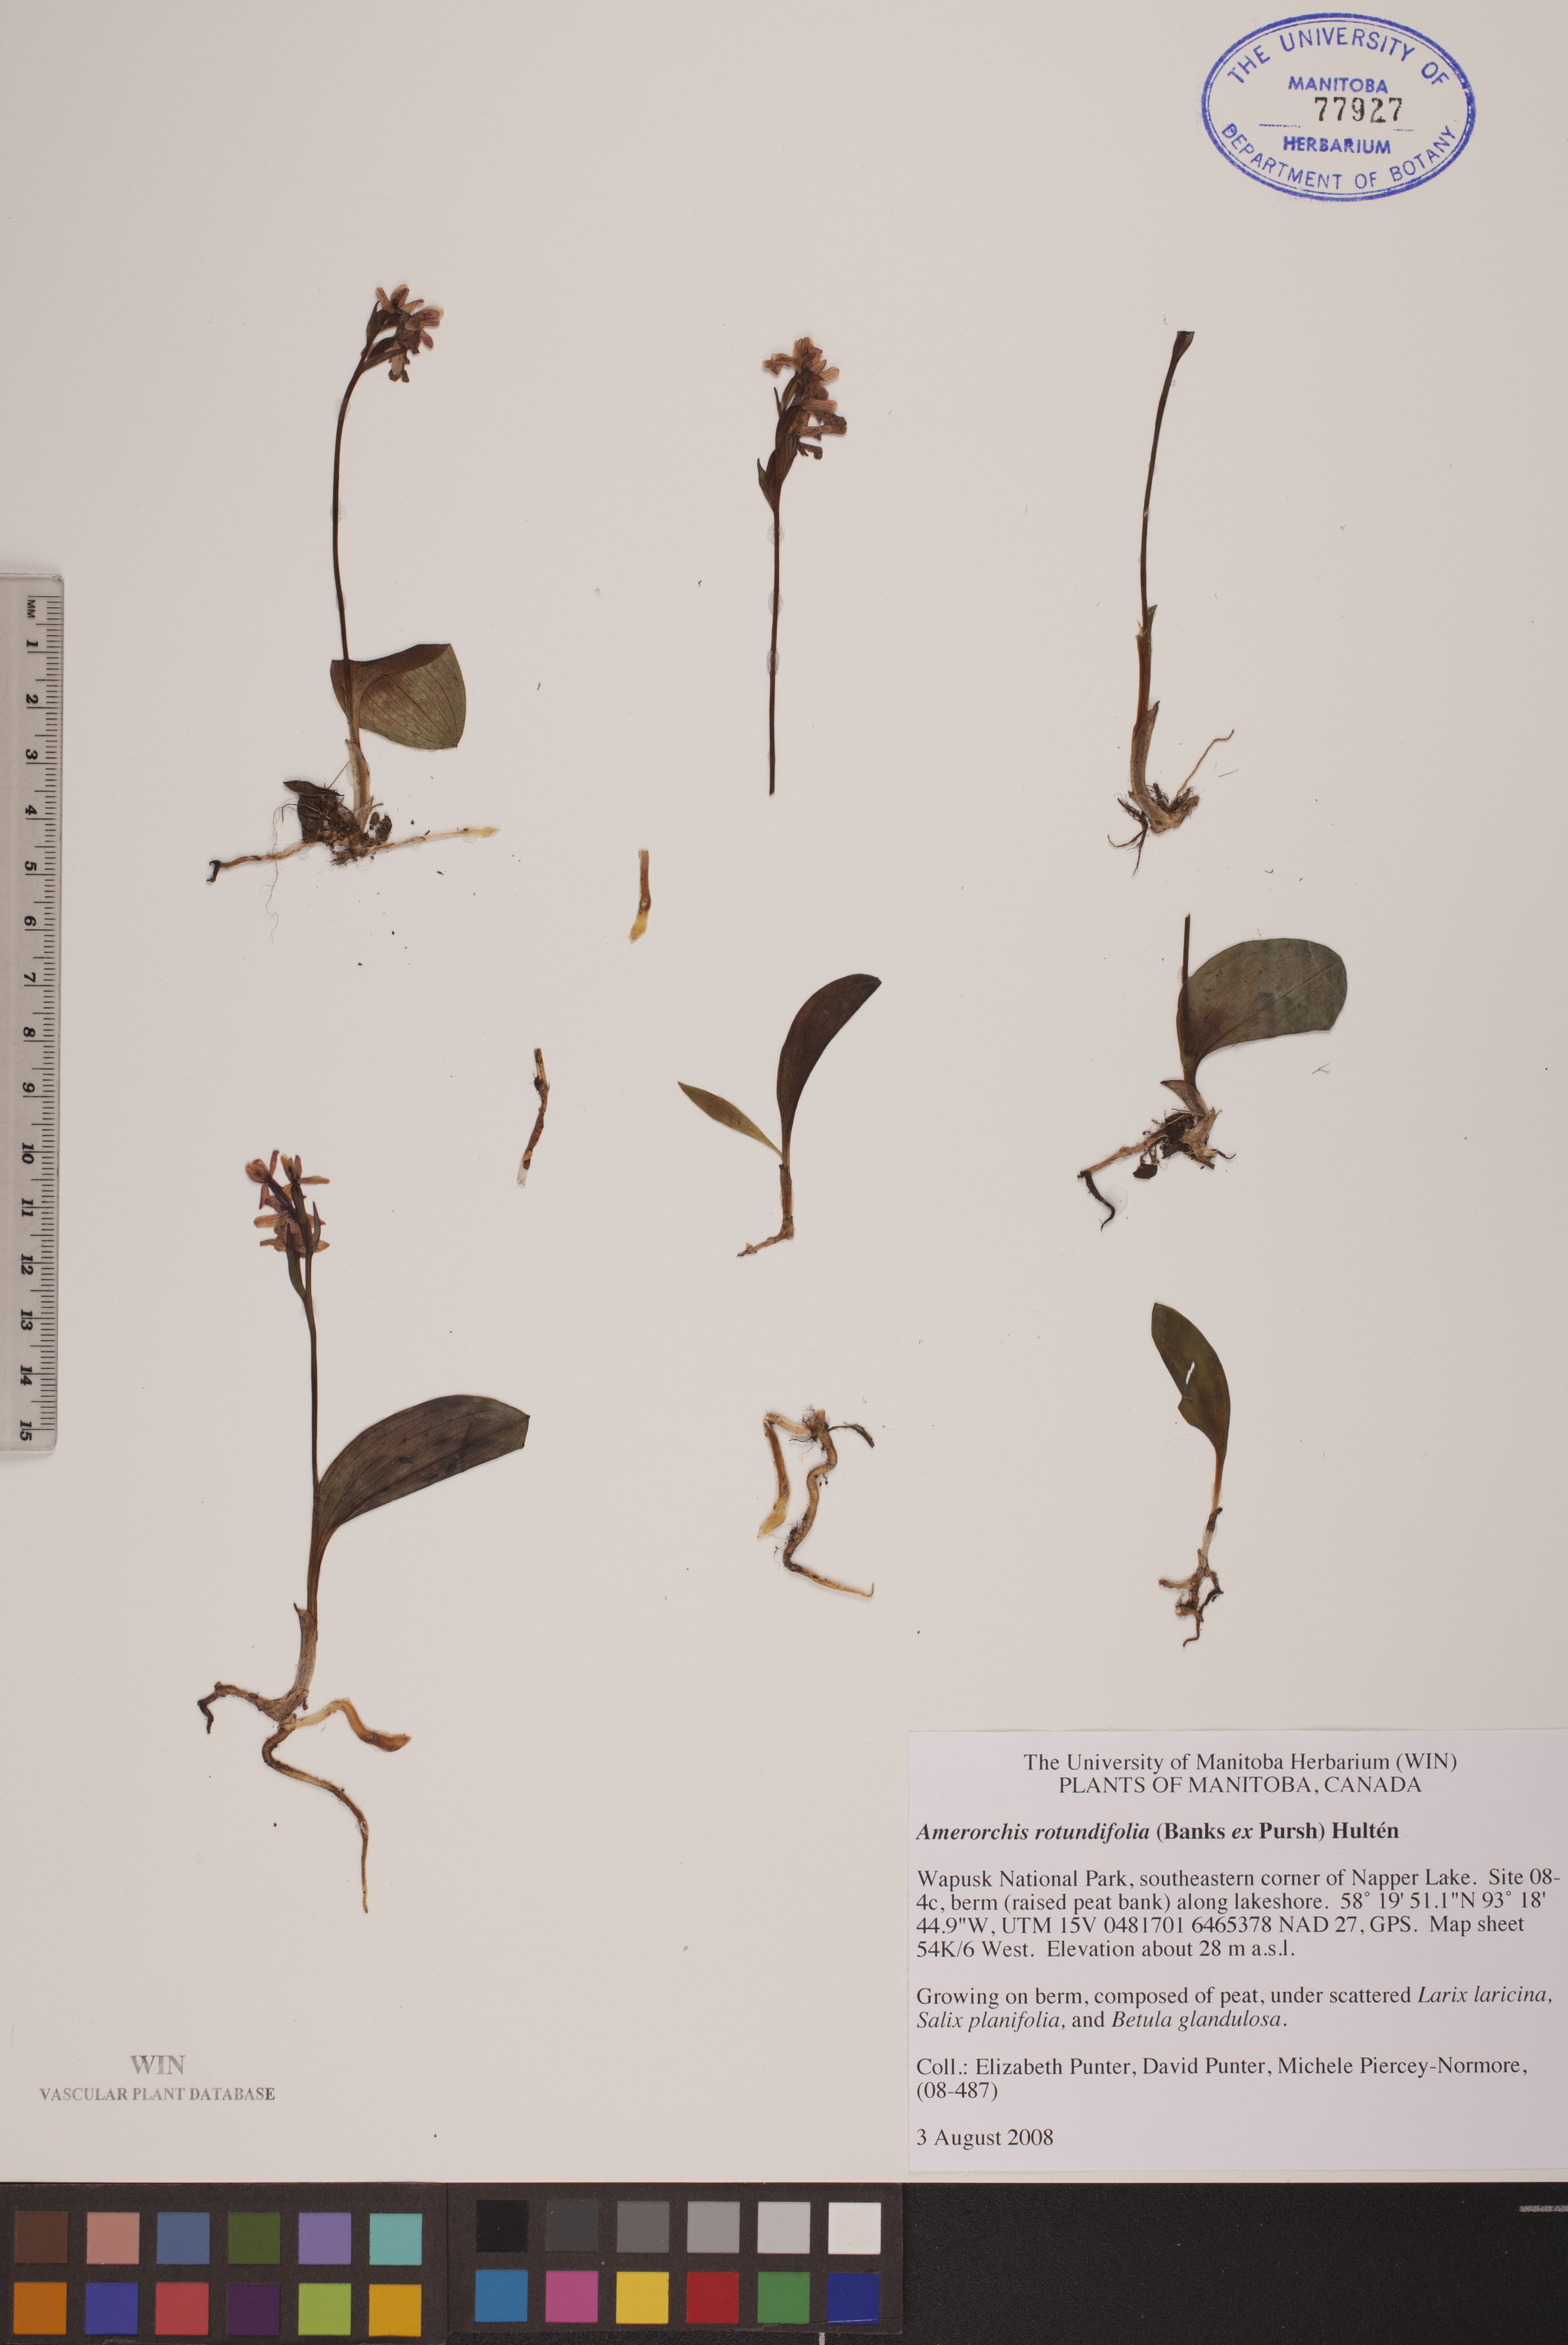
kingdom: Plantae
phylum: Tracheophyta
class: Liliopsida
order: Asparagales
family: Orchidaceae
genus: Galearis
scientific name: Galearis rotundifolia
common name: One-leaved orchis
